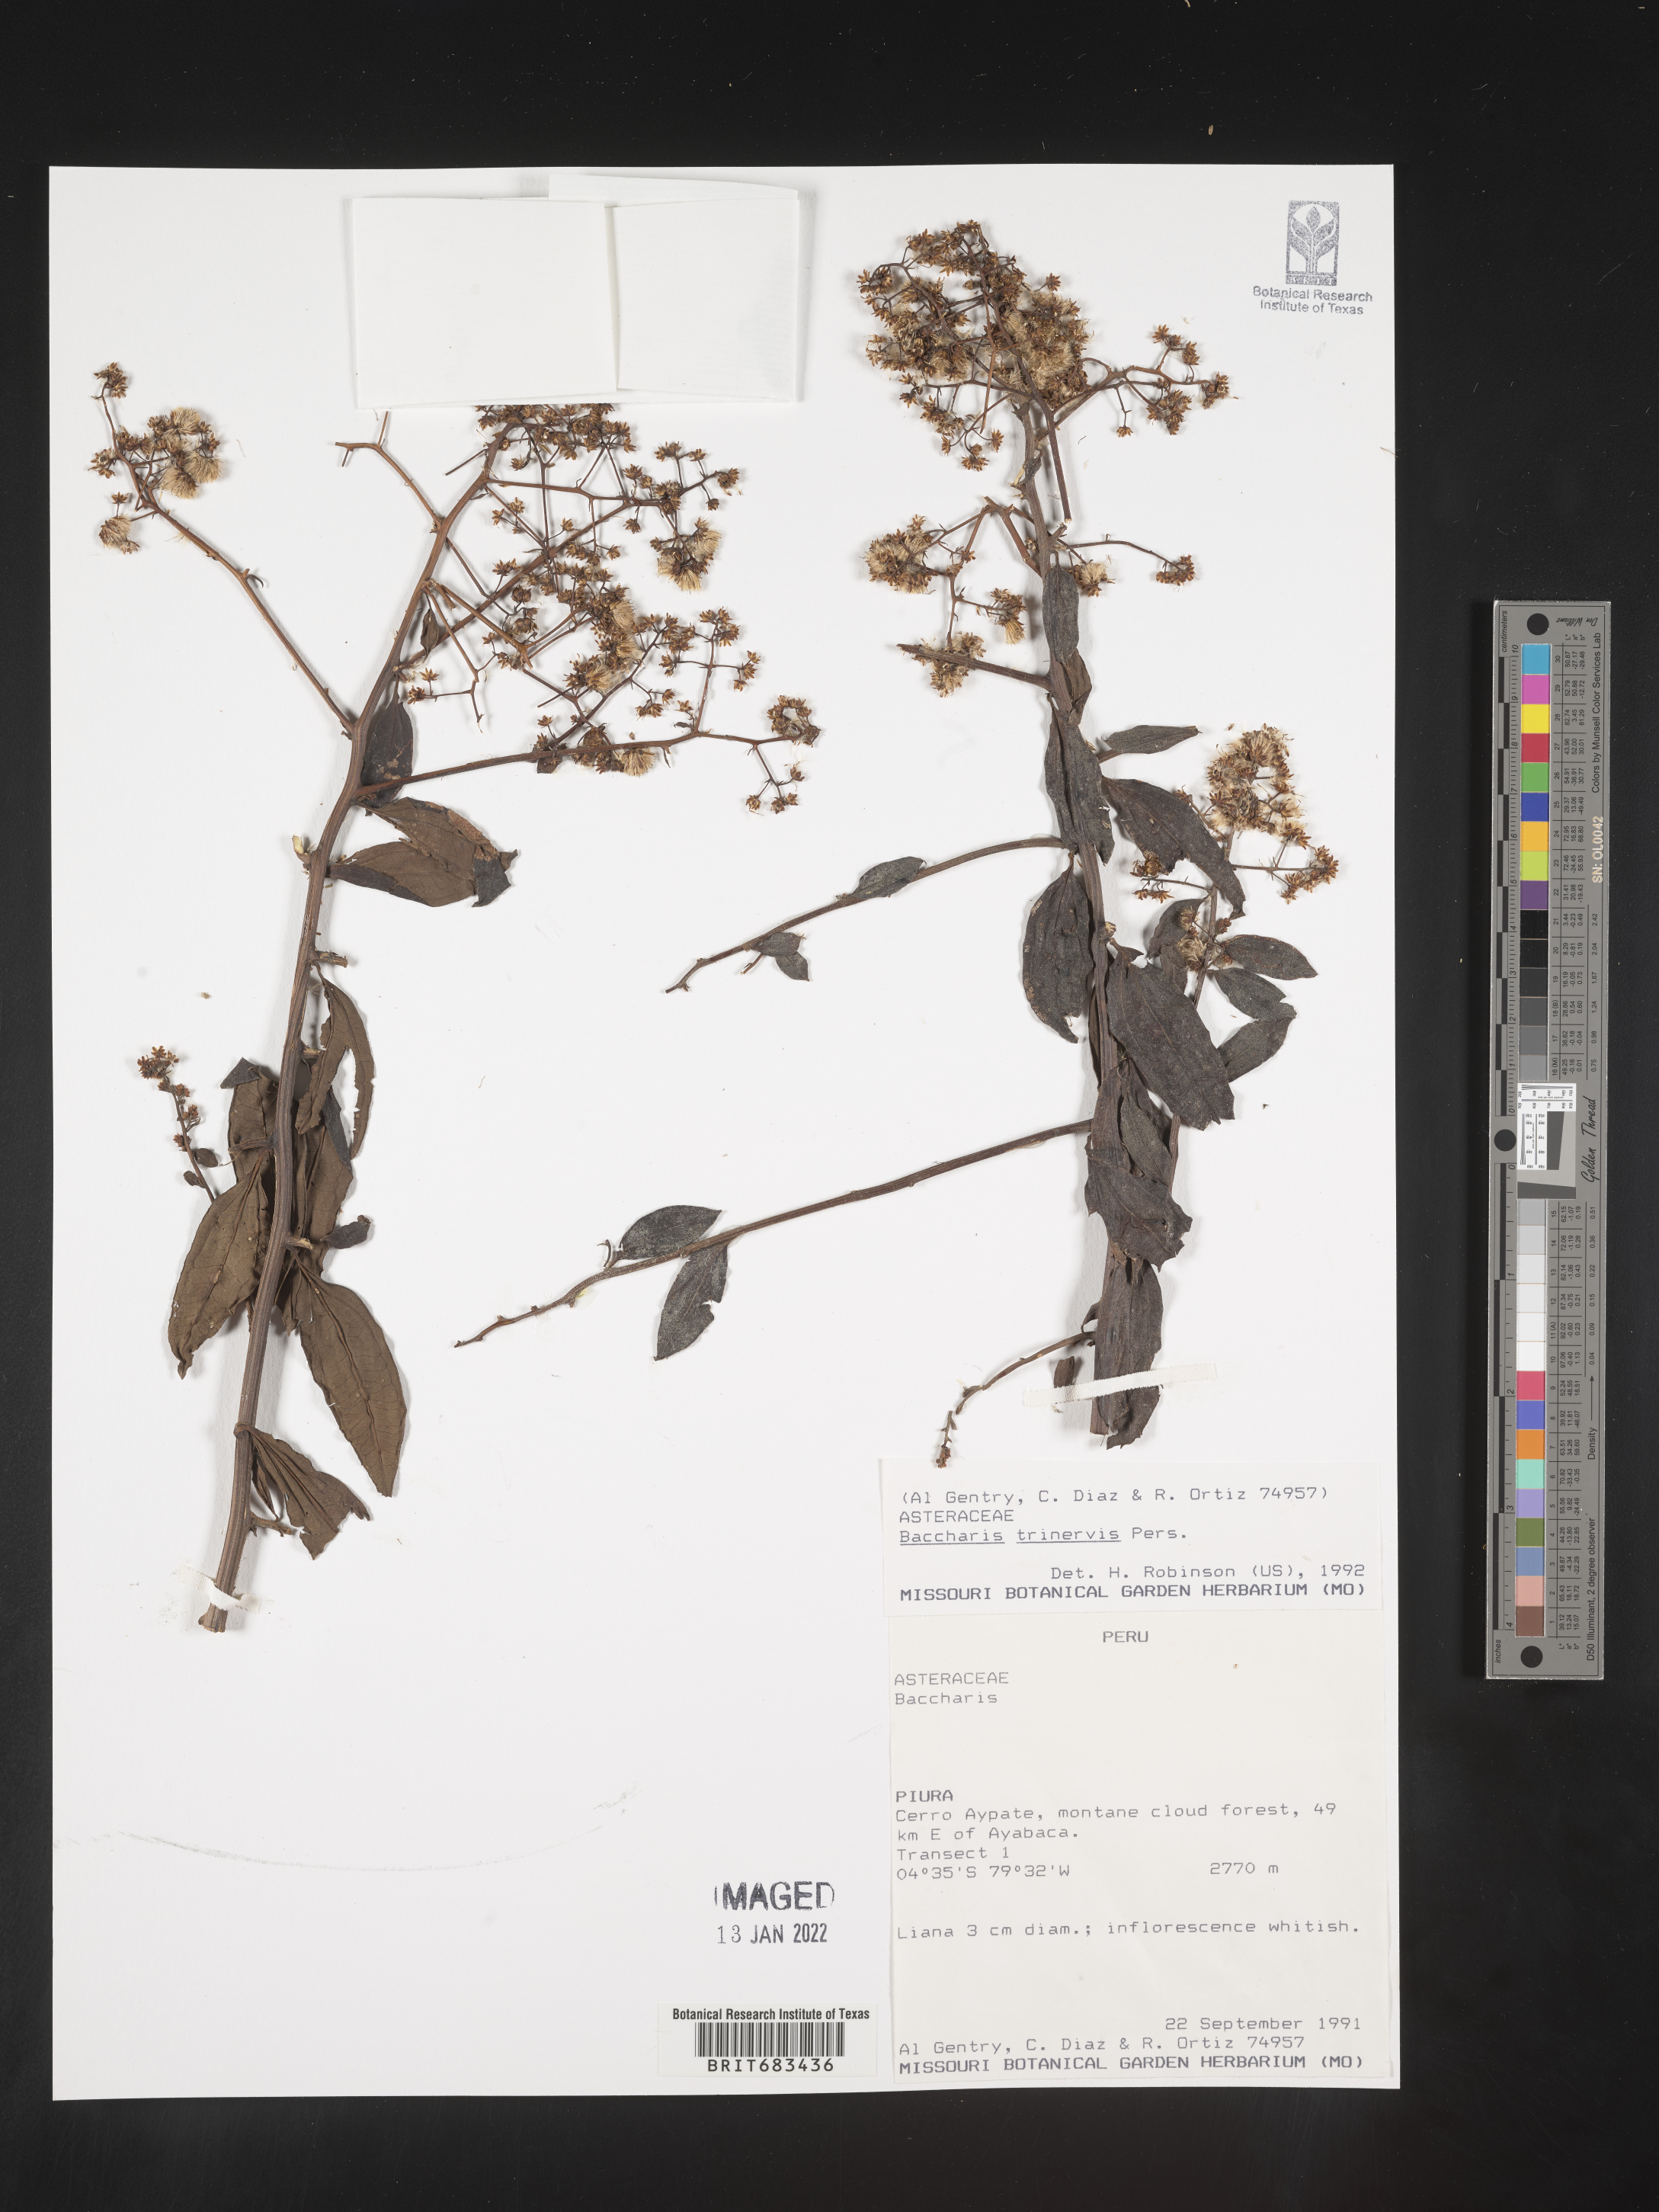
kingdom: Plantae
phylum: Tracheophyta
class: Magnoliopsida
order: Asterales
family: Asteraceae
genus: Baccharis
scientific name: Baccharis trinervis
